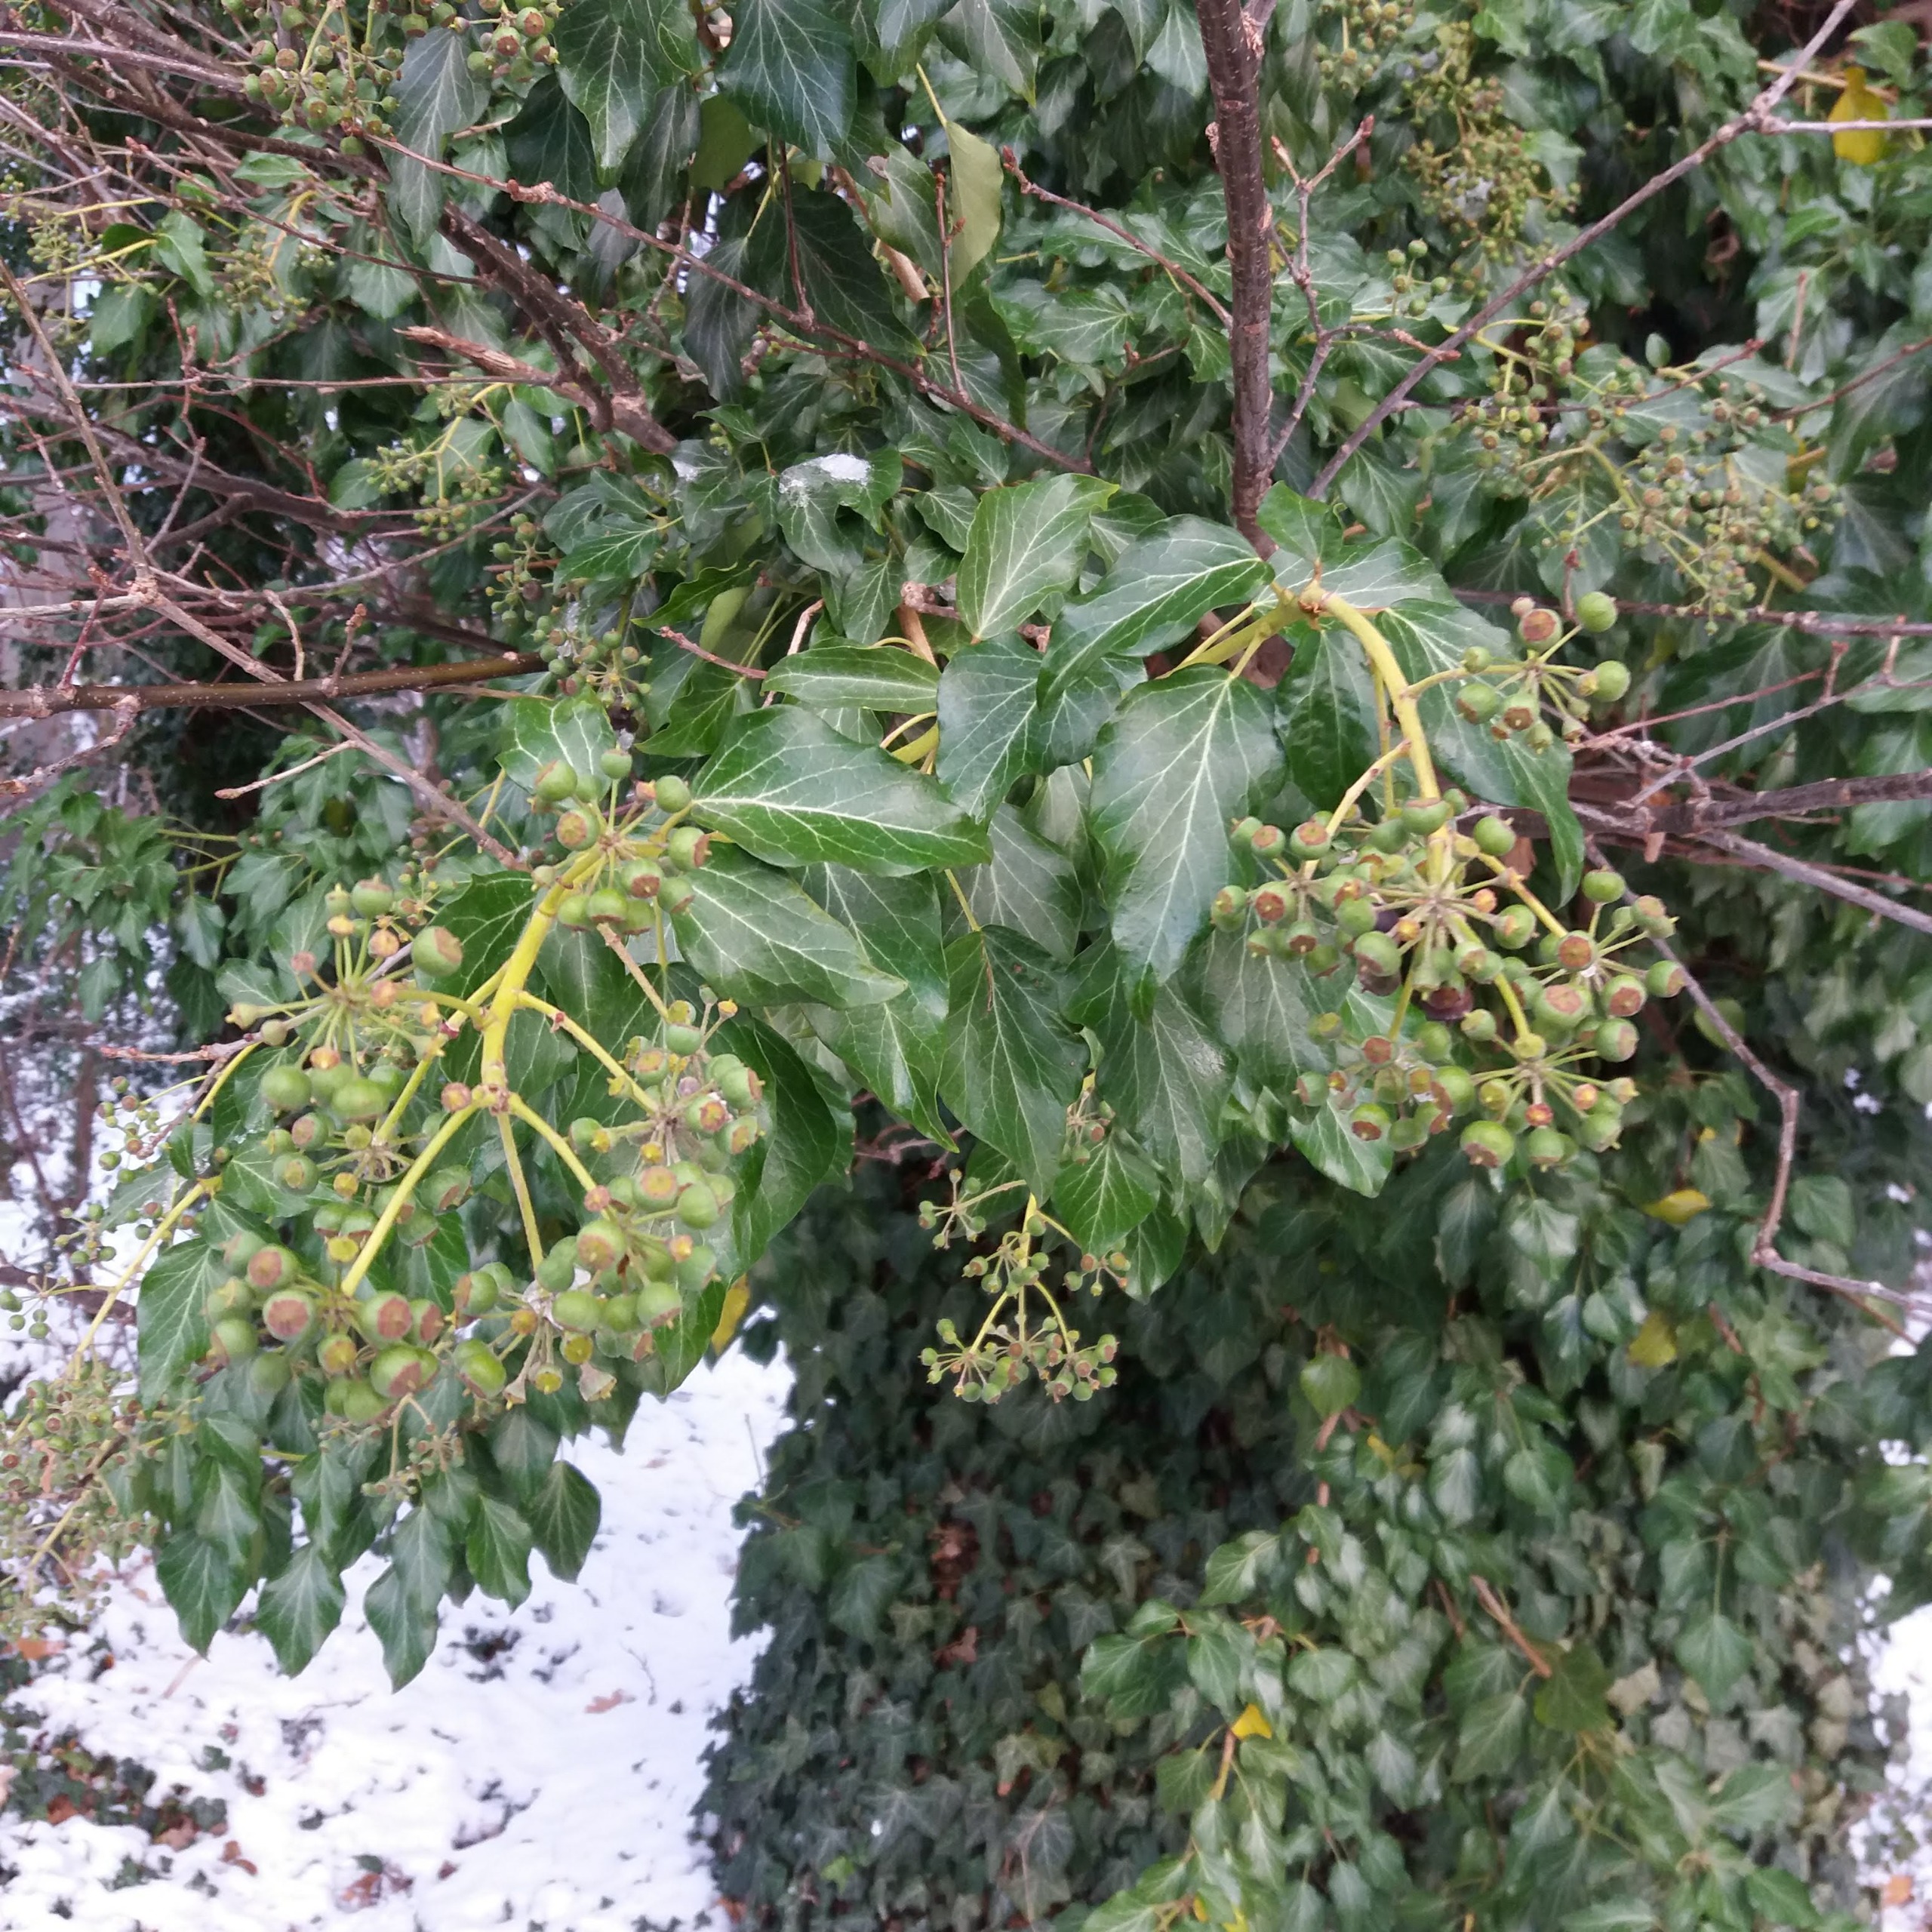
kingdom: Plantae
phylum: Tracheophyta
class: Magnoliopsida
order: Apiales
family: Araliaceae
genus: Hedera
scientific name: Hedera helix
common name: Vedbend
